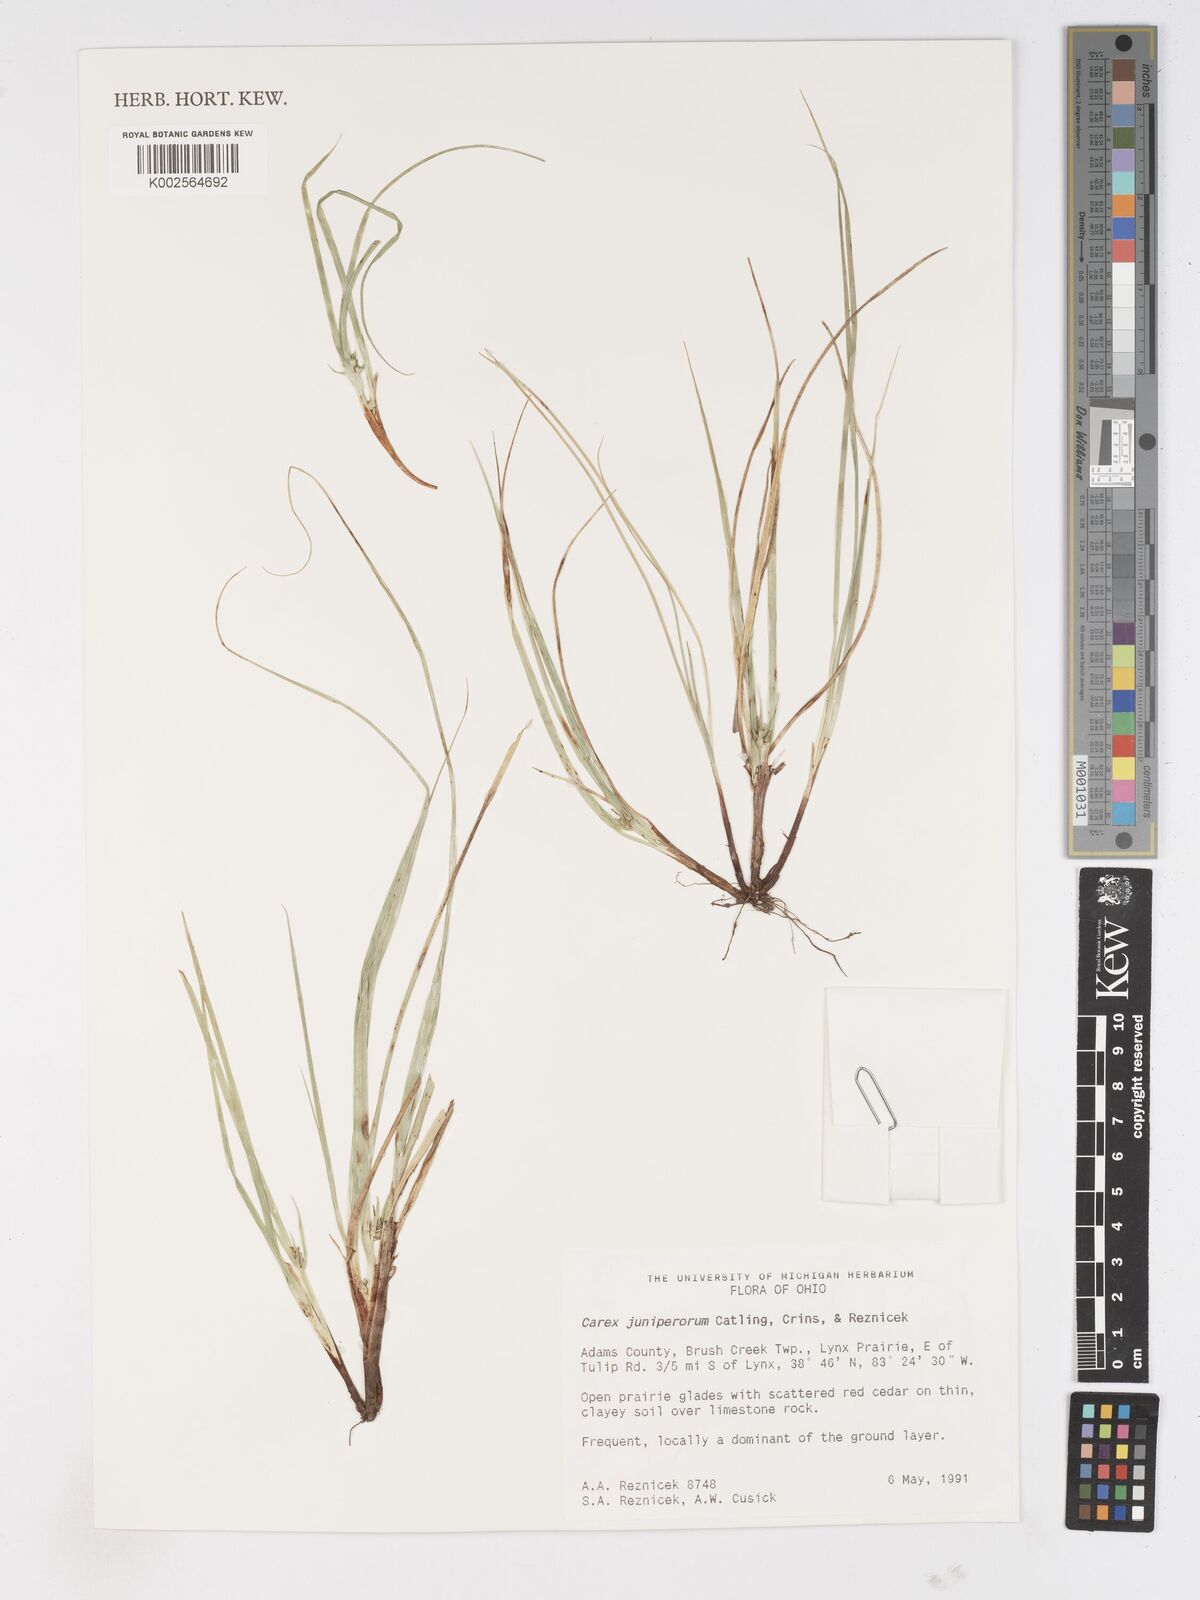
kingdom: Plantae
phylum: Tracheophyta
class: Liliopsida
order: Poales
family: Cyperaceae
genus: Carex
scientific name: Carex juniperorum
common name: Juniper-sedge
